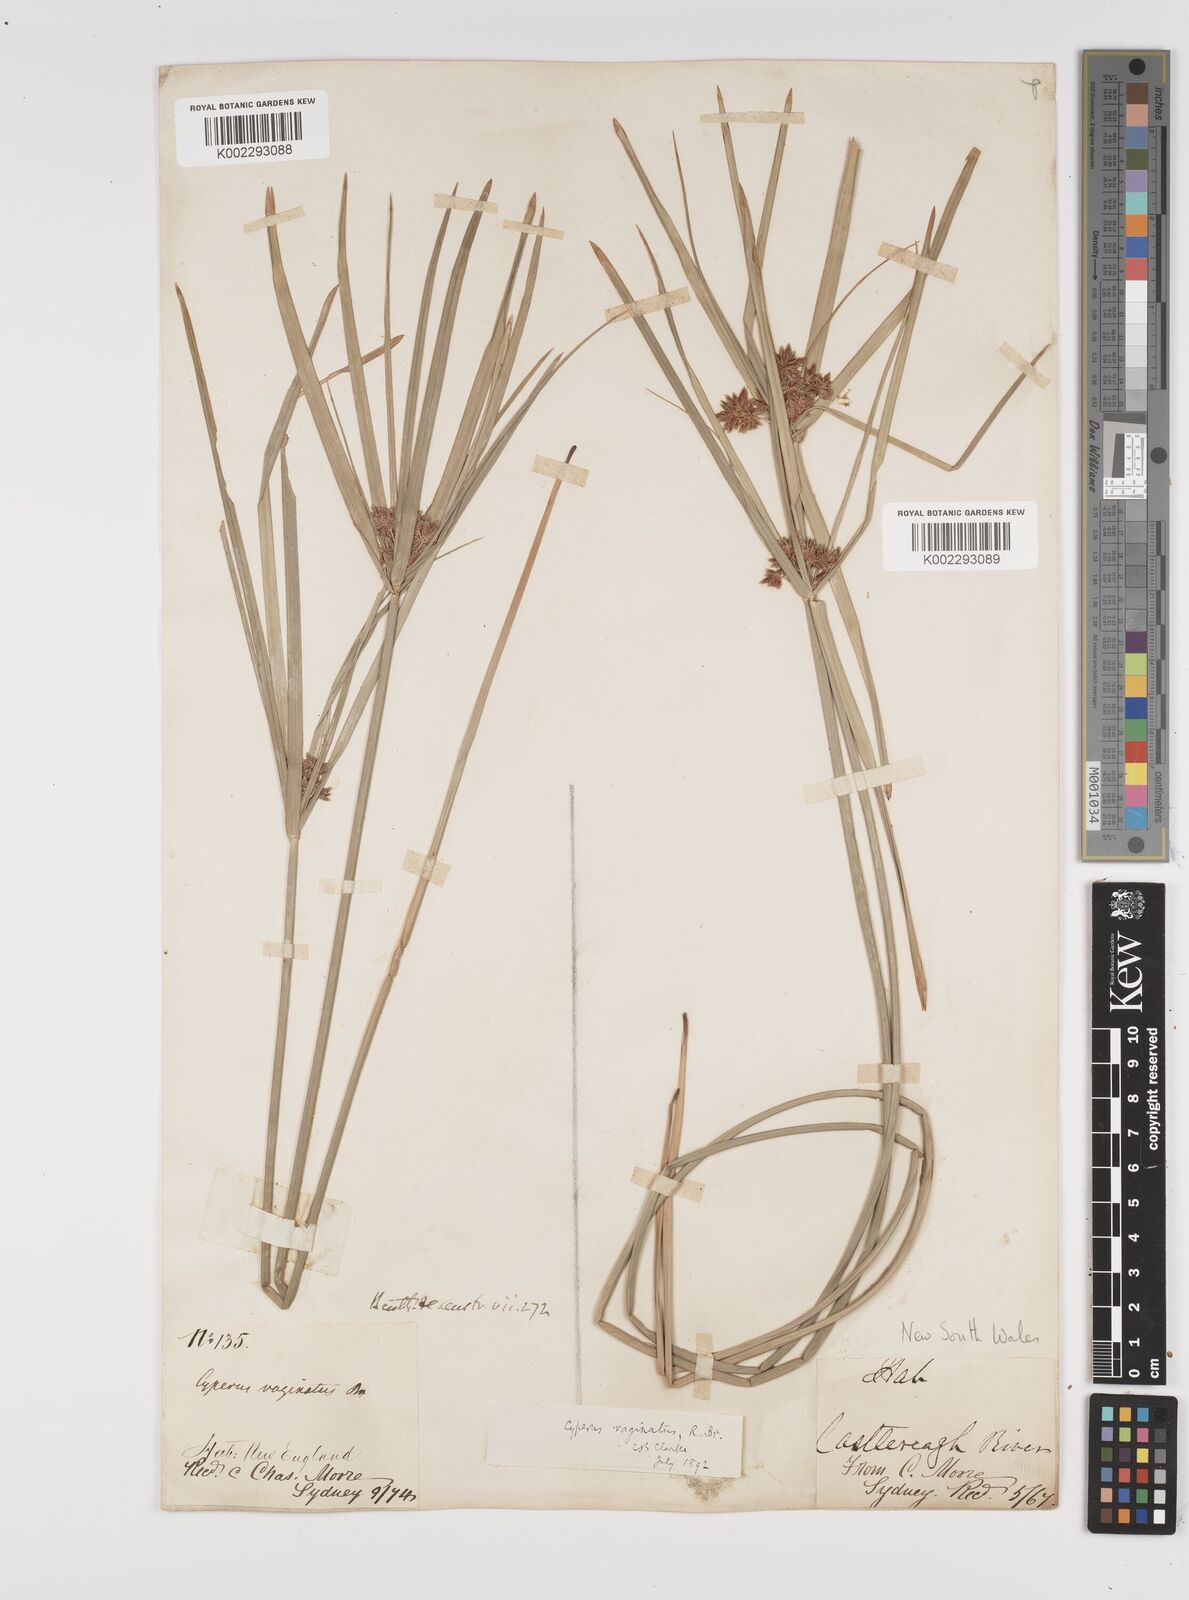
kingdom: Plantae
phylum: Tracheophyta
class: Liliopsida
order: Poales
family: Cyperaceae
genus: Cyperus
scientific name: Cyperus vaginatus
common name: Stiff-leaved flat-sedge
